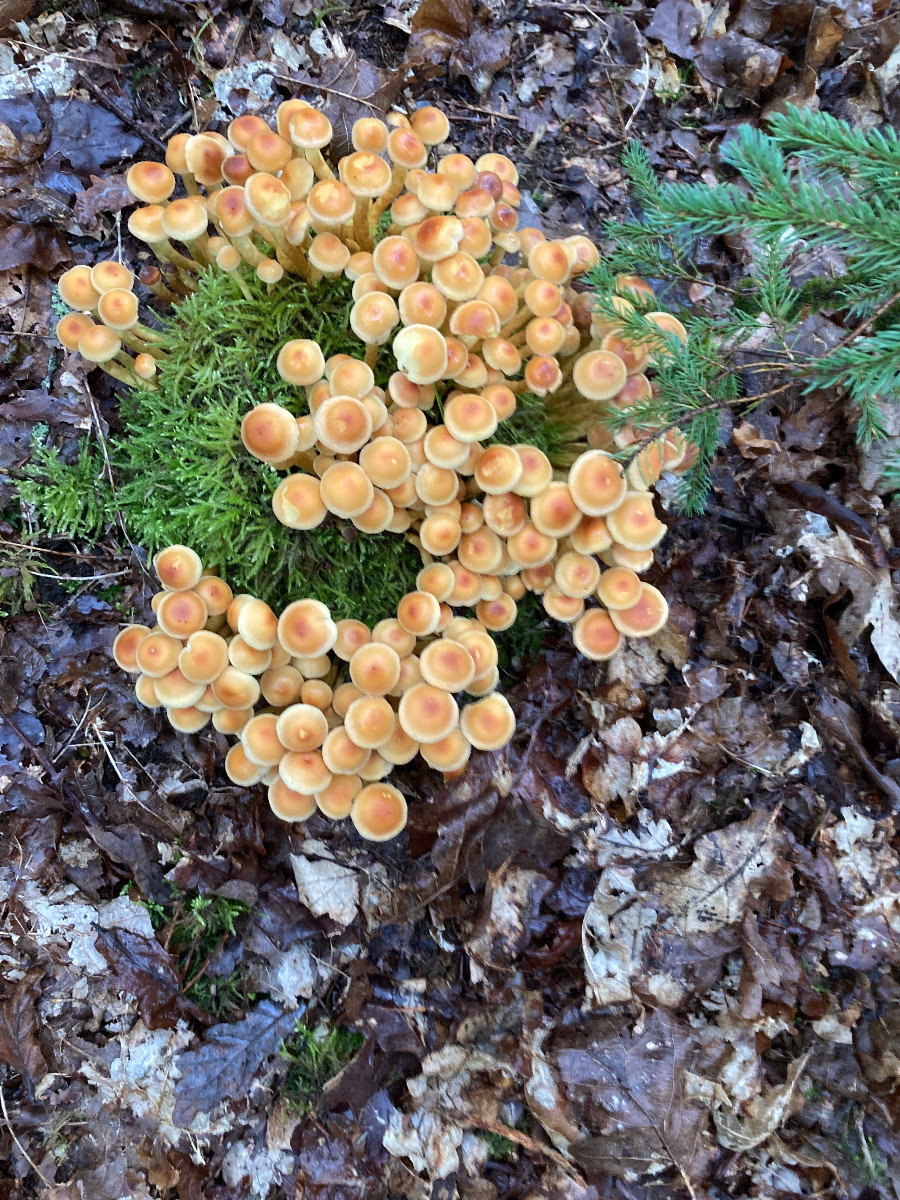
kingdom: Fungi
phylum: Basidiomycota
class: Agaricomycetes
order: Agaricales
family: Strophariaceae
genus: Hypholoma
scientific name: Hypholoma fasciculare
